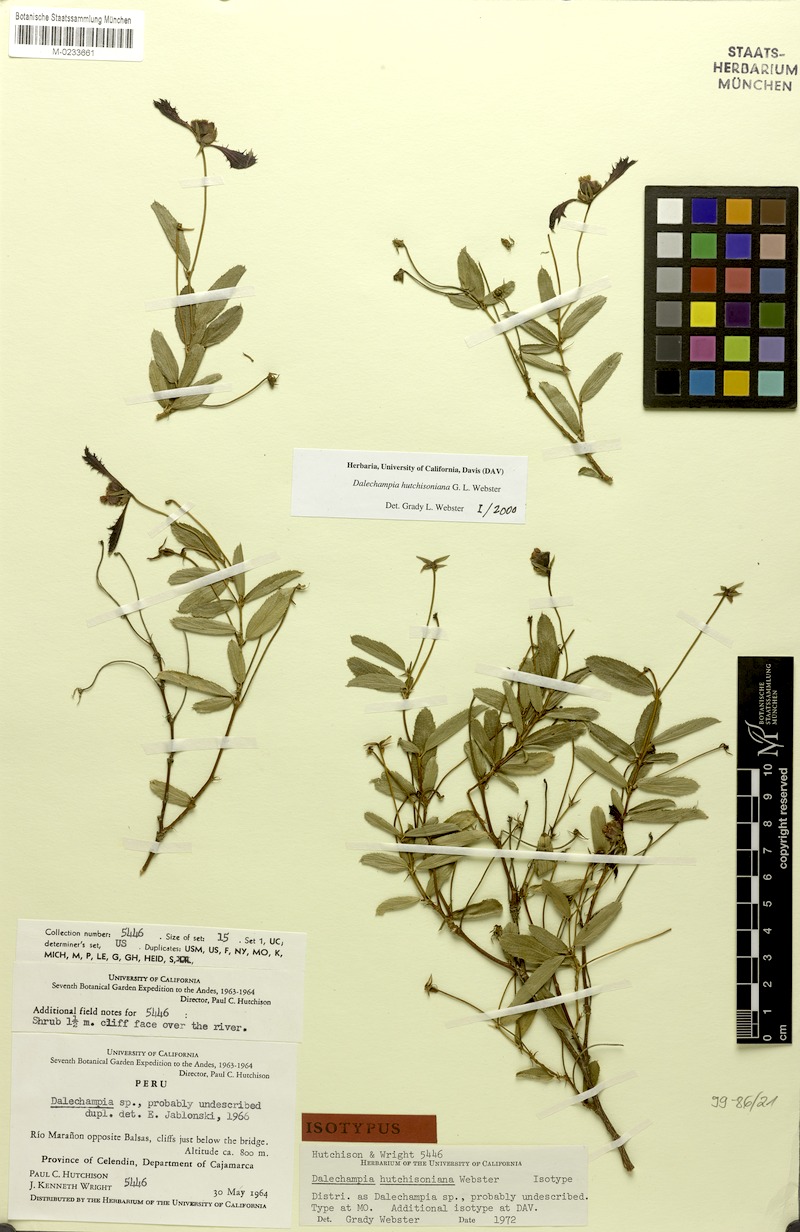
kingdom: Plantae
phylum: Tracheophyta
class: Magnoliopsida
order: Malpighiales
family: Euphorbiaceae
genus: Dalechampia
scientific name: Dalechampia hutchisoniana
